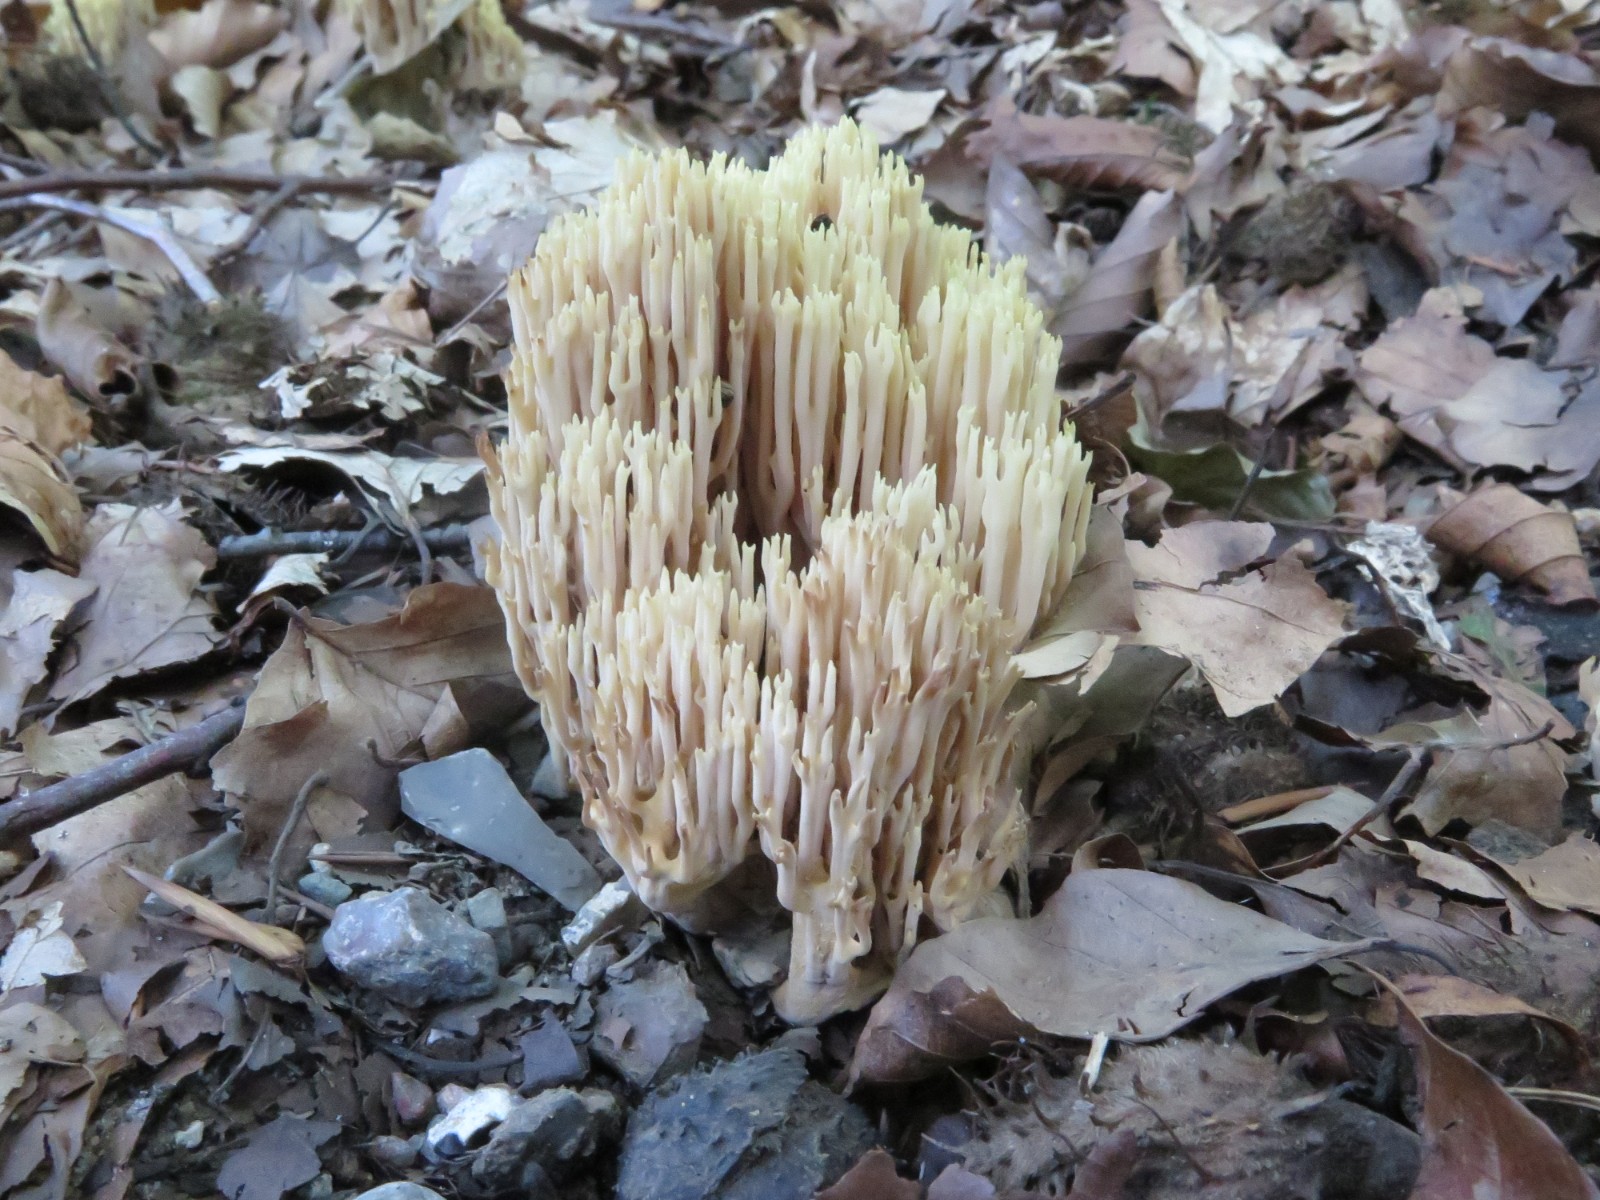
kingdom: Fungi
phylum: Basidiomycota
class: Agaricomycetes
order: Gomphales
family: Gomphaceae
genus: Ramaria
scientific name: Ramaria stricta
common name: rank koralsvamp
